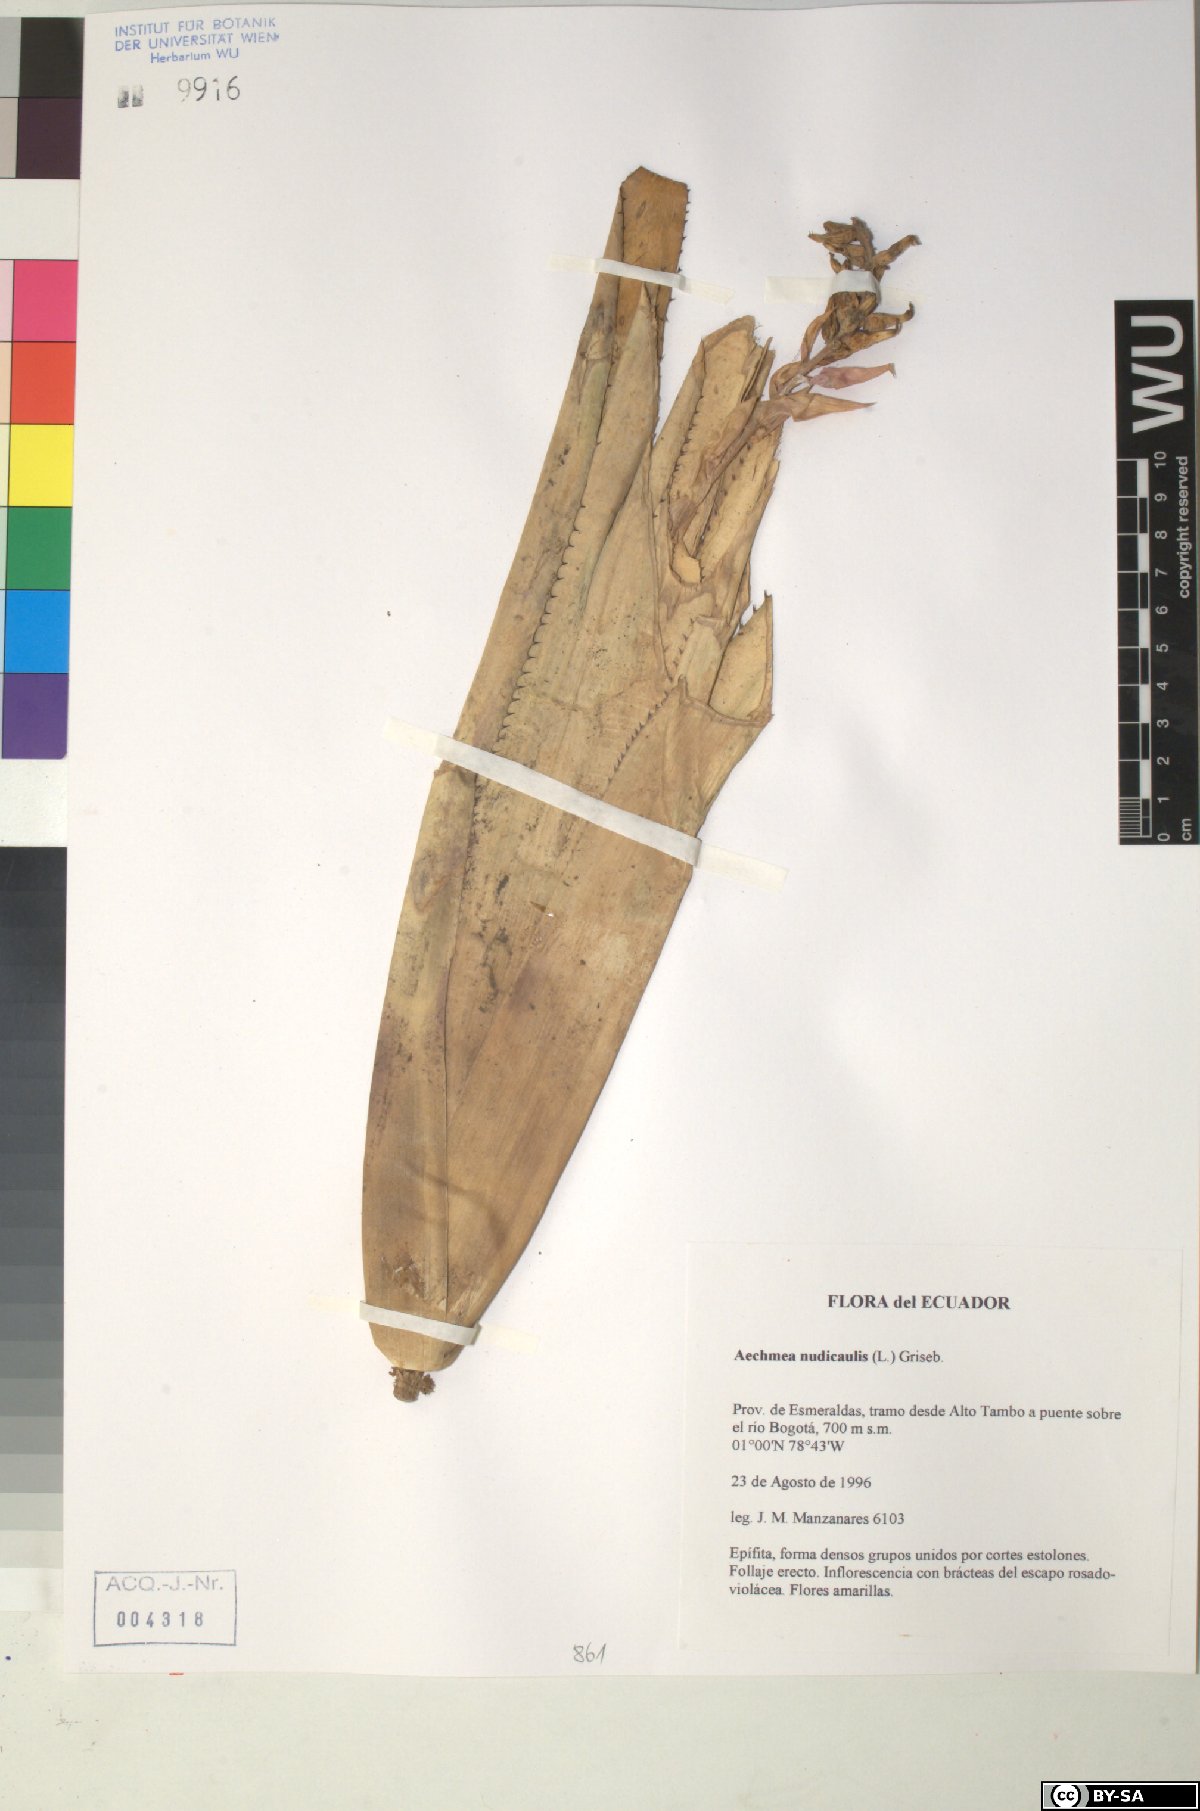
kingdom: Plantae
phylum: Tracheophyta
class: Liliopsida
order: Poales
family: Bromeliaceae
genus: Aechmea
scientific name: Aechmea nudicaulis
